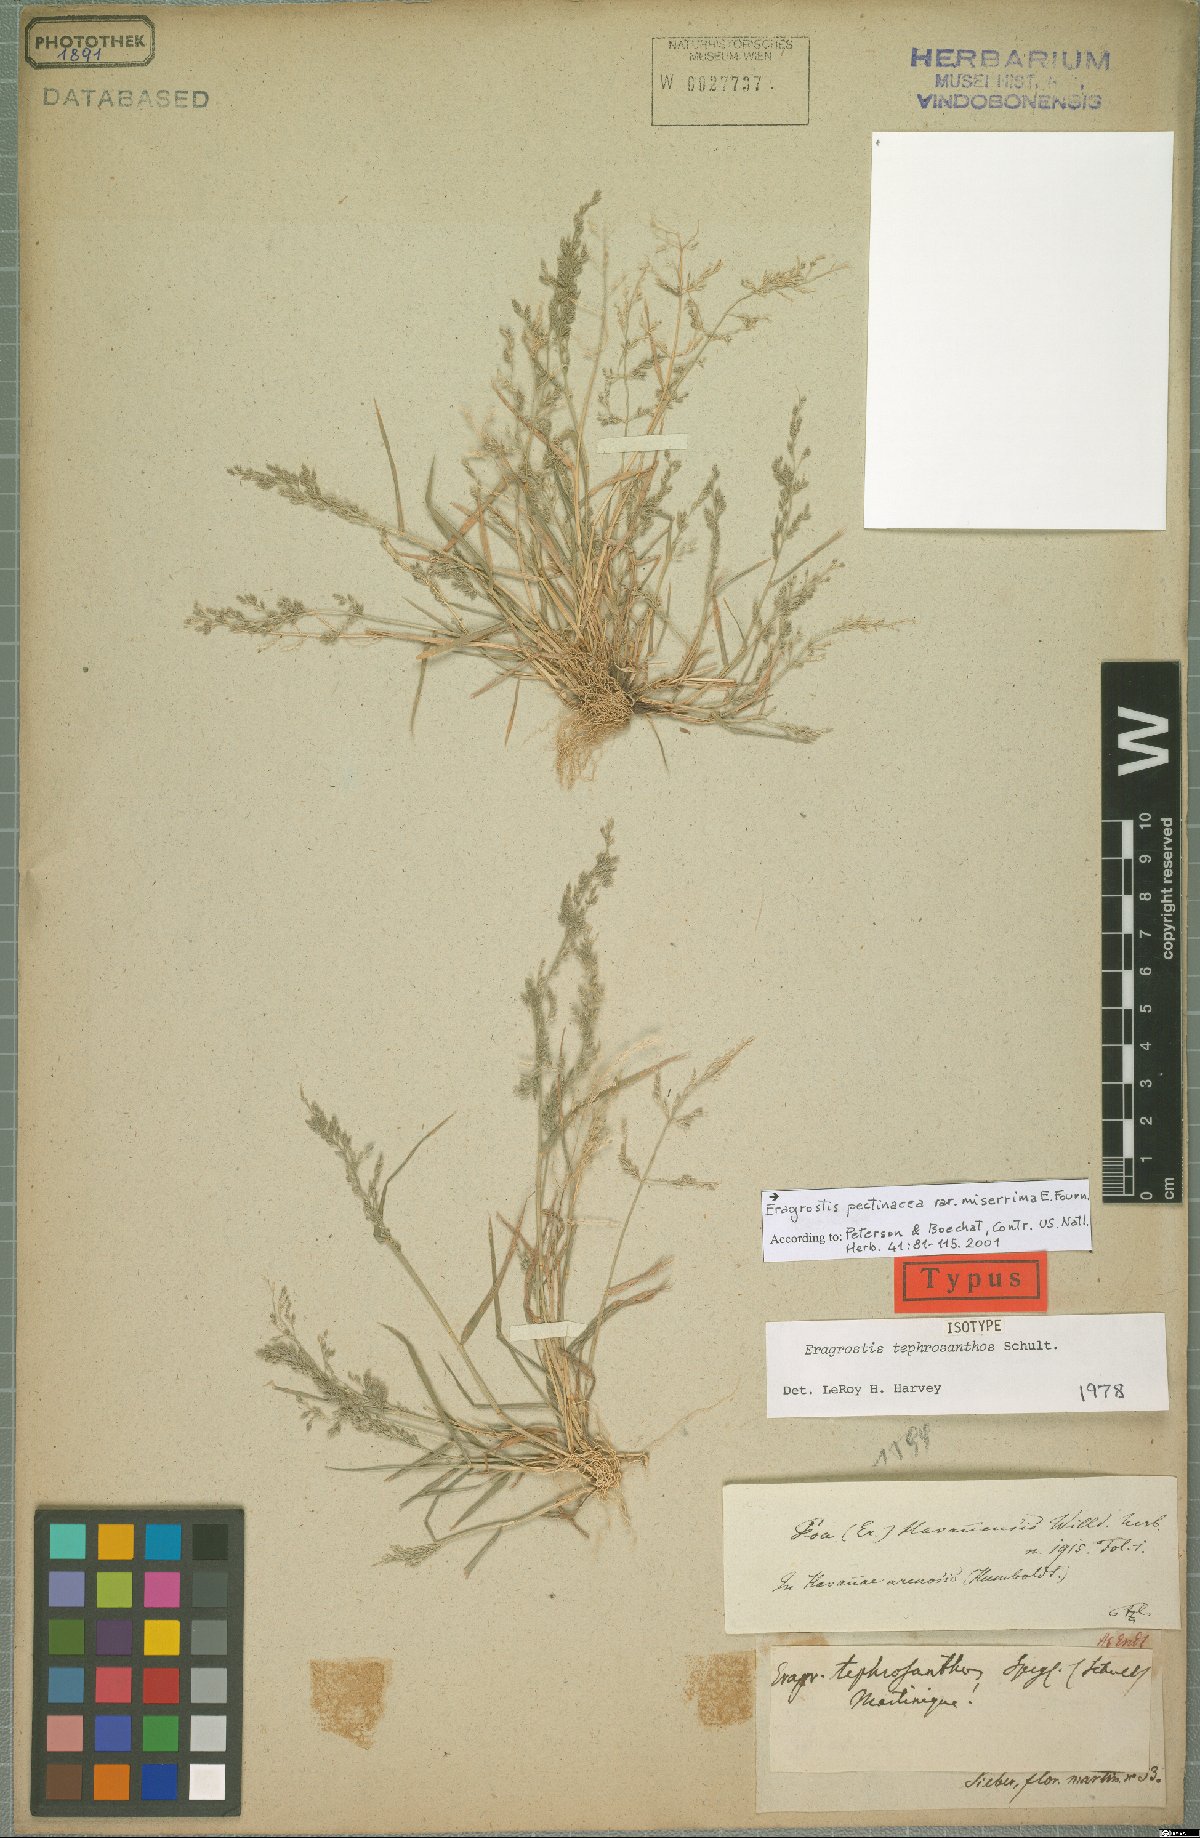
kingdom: Plantae
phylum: Tracheophyta
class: Liliopsida
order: Poales
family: Poaceae
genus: Eragrostis
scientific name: Eragrostis tephrosanthos
